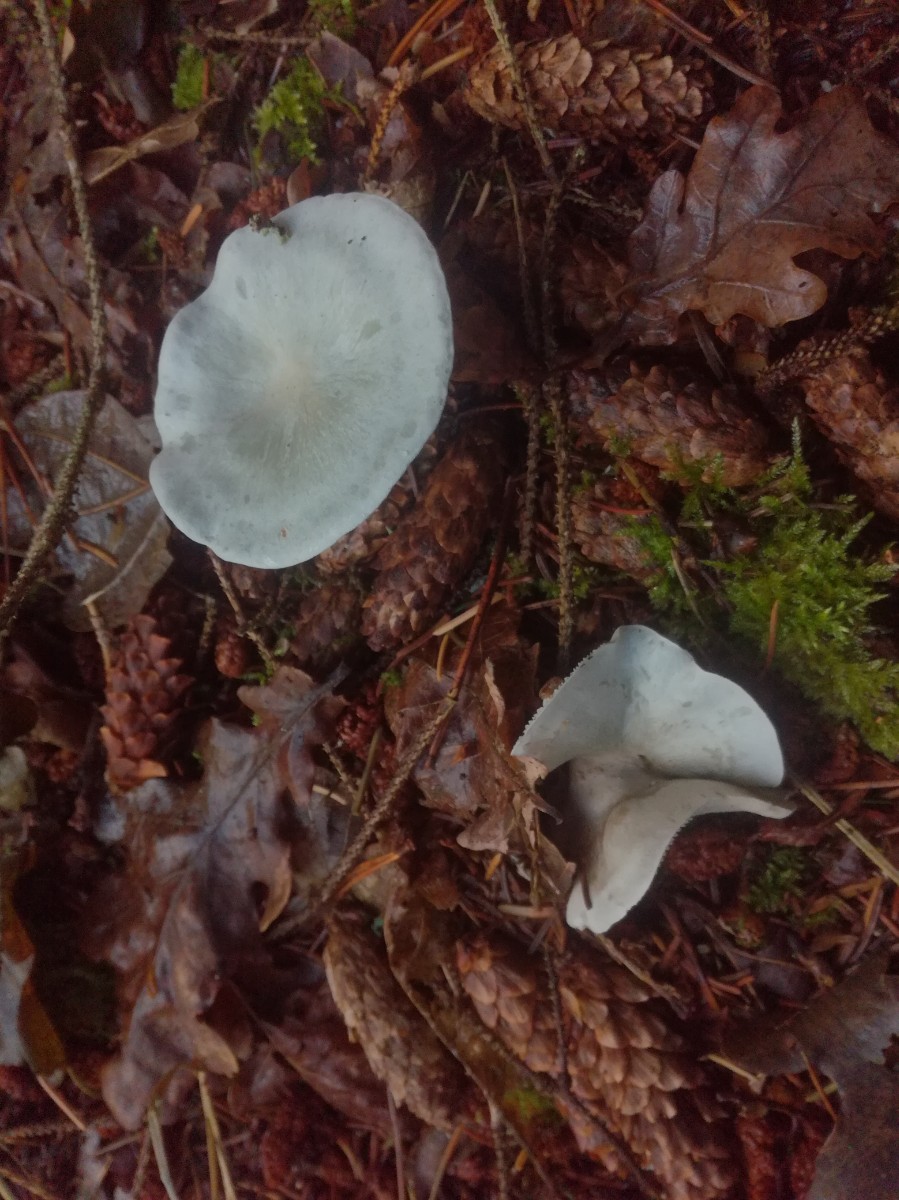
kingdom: Fungi
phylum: Basidiomycota
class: Agaricomycetes
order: Agaricales
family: Tricholomataceae
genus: Clitocybe
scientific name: Clitocybe odora
